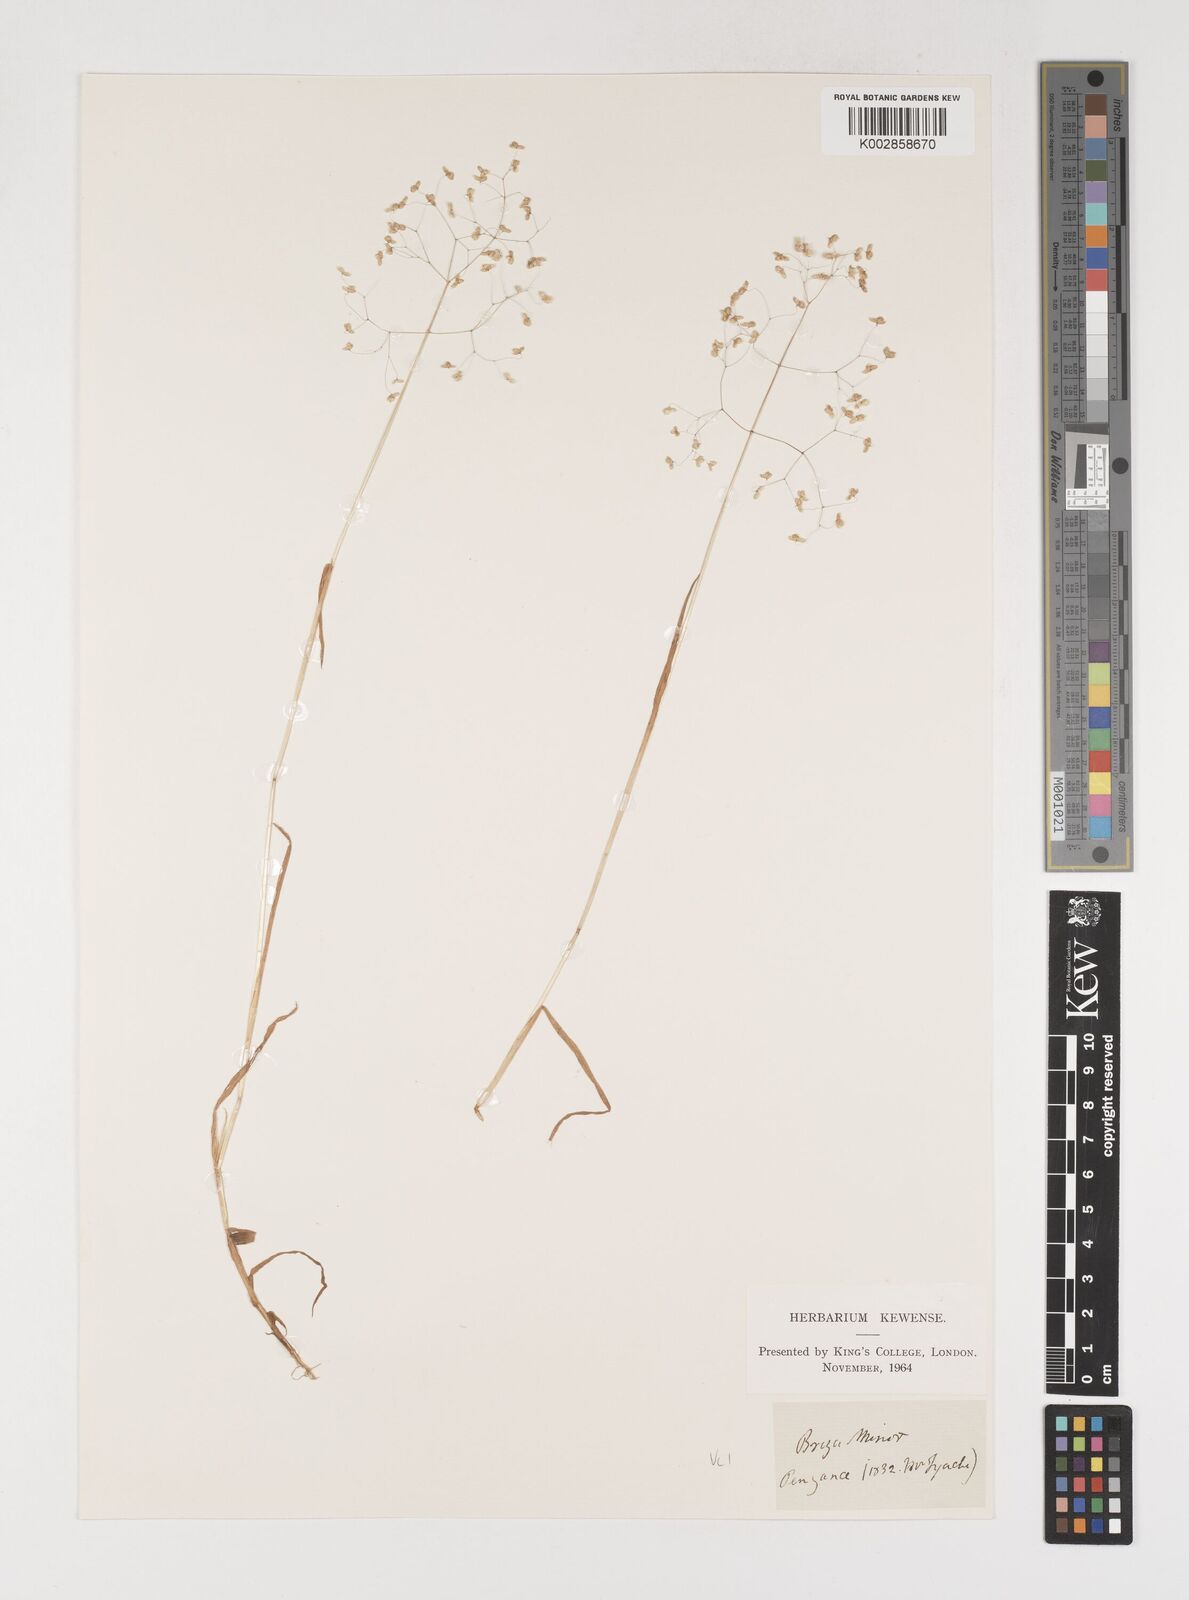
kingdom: Plantae
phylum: Tracheophyta
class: Liliopsida
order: Poales
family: Poaceae
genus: Briza
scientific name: Briza minor
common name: Lesser quaking-grass
